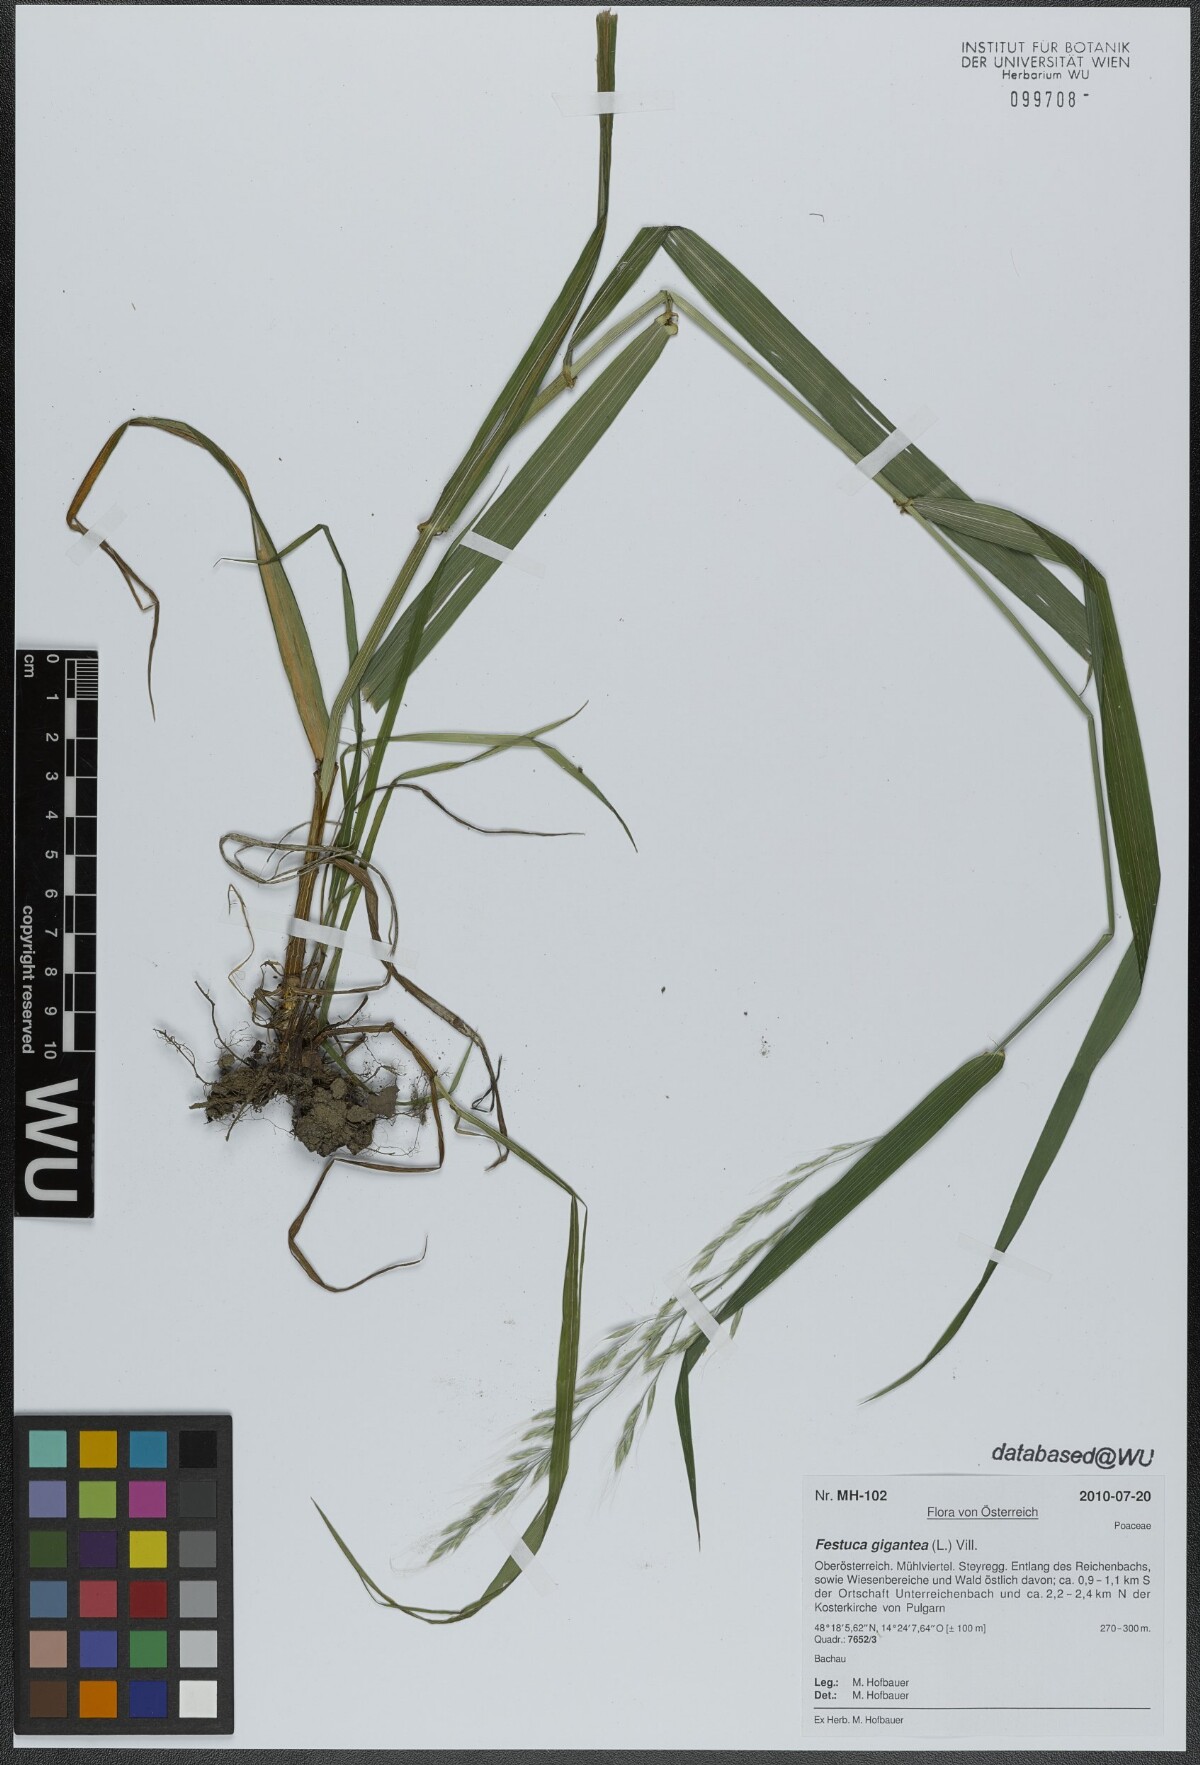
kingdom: Plantae
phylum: Tracheophyta
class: Liliopsida
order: Poales
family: Poaceae
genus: Lolium
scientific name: Lolium giganteum
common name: Giant fescue
